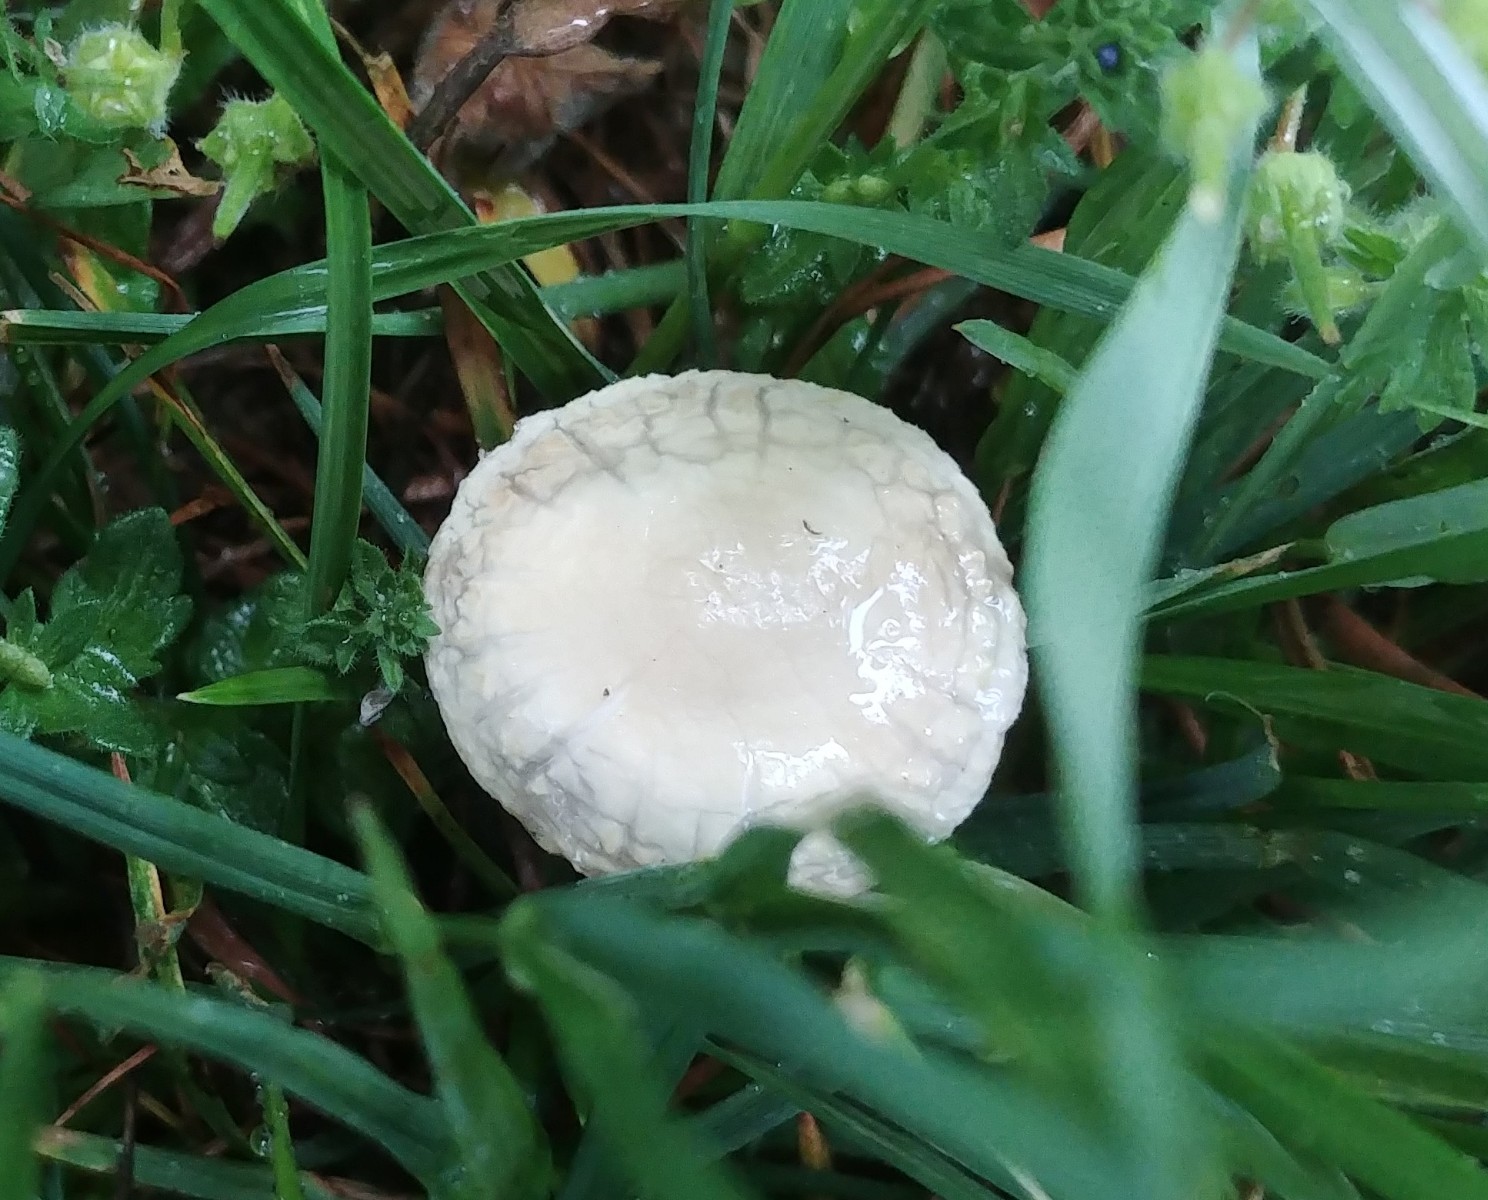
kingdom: Fungi
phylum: Basidiomycota
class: Agaricomycetes
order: Agaricales
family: Strophariaceae
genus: Agrocybe
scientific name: Agrocybe dura
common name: fastkødet agerhat
